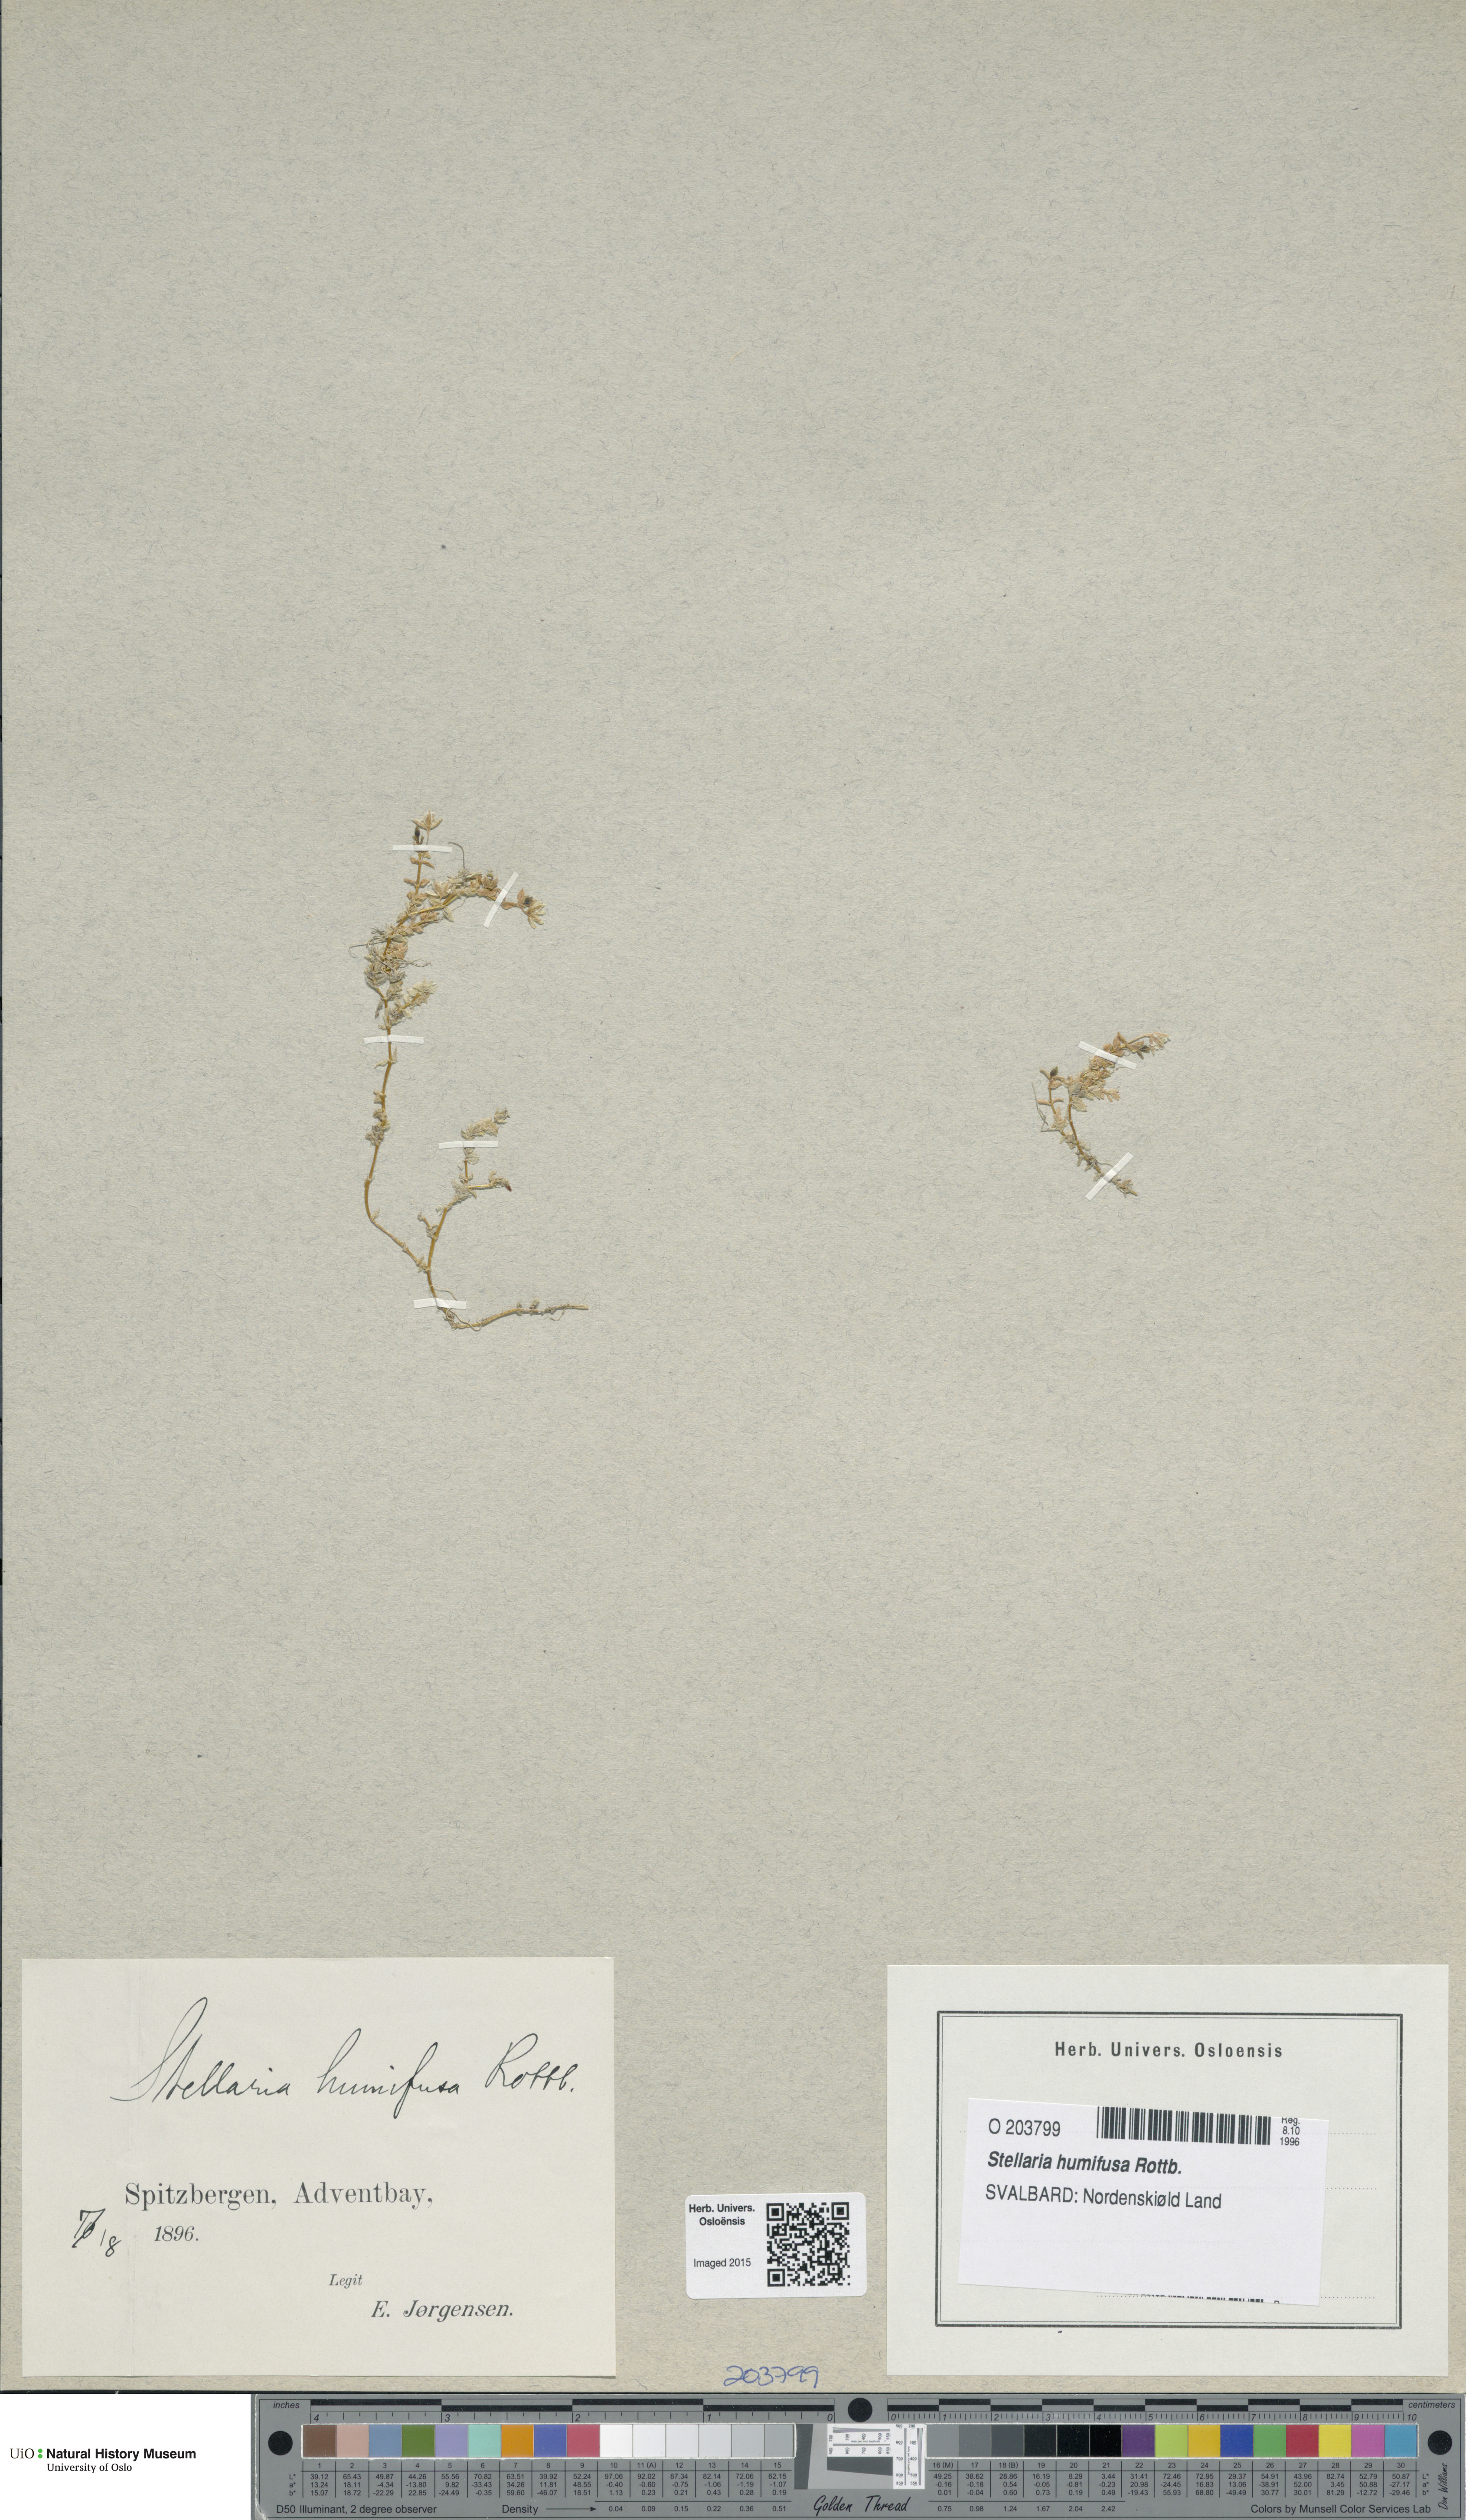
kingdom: Plantae
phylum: Tracheophyta
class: Magnoliopsida
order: Caryophyllales
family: Caryophyllaceae
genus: Stellaria
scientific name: Stellaria humifusa
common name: Creeping starwort
